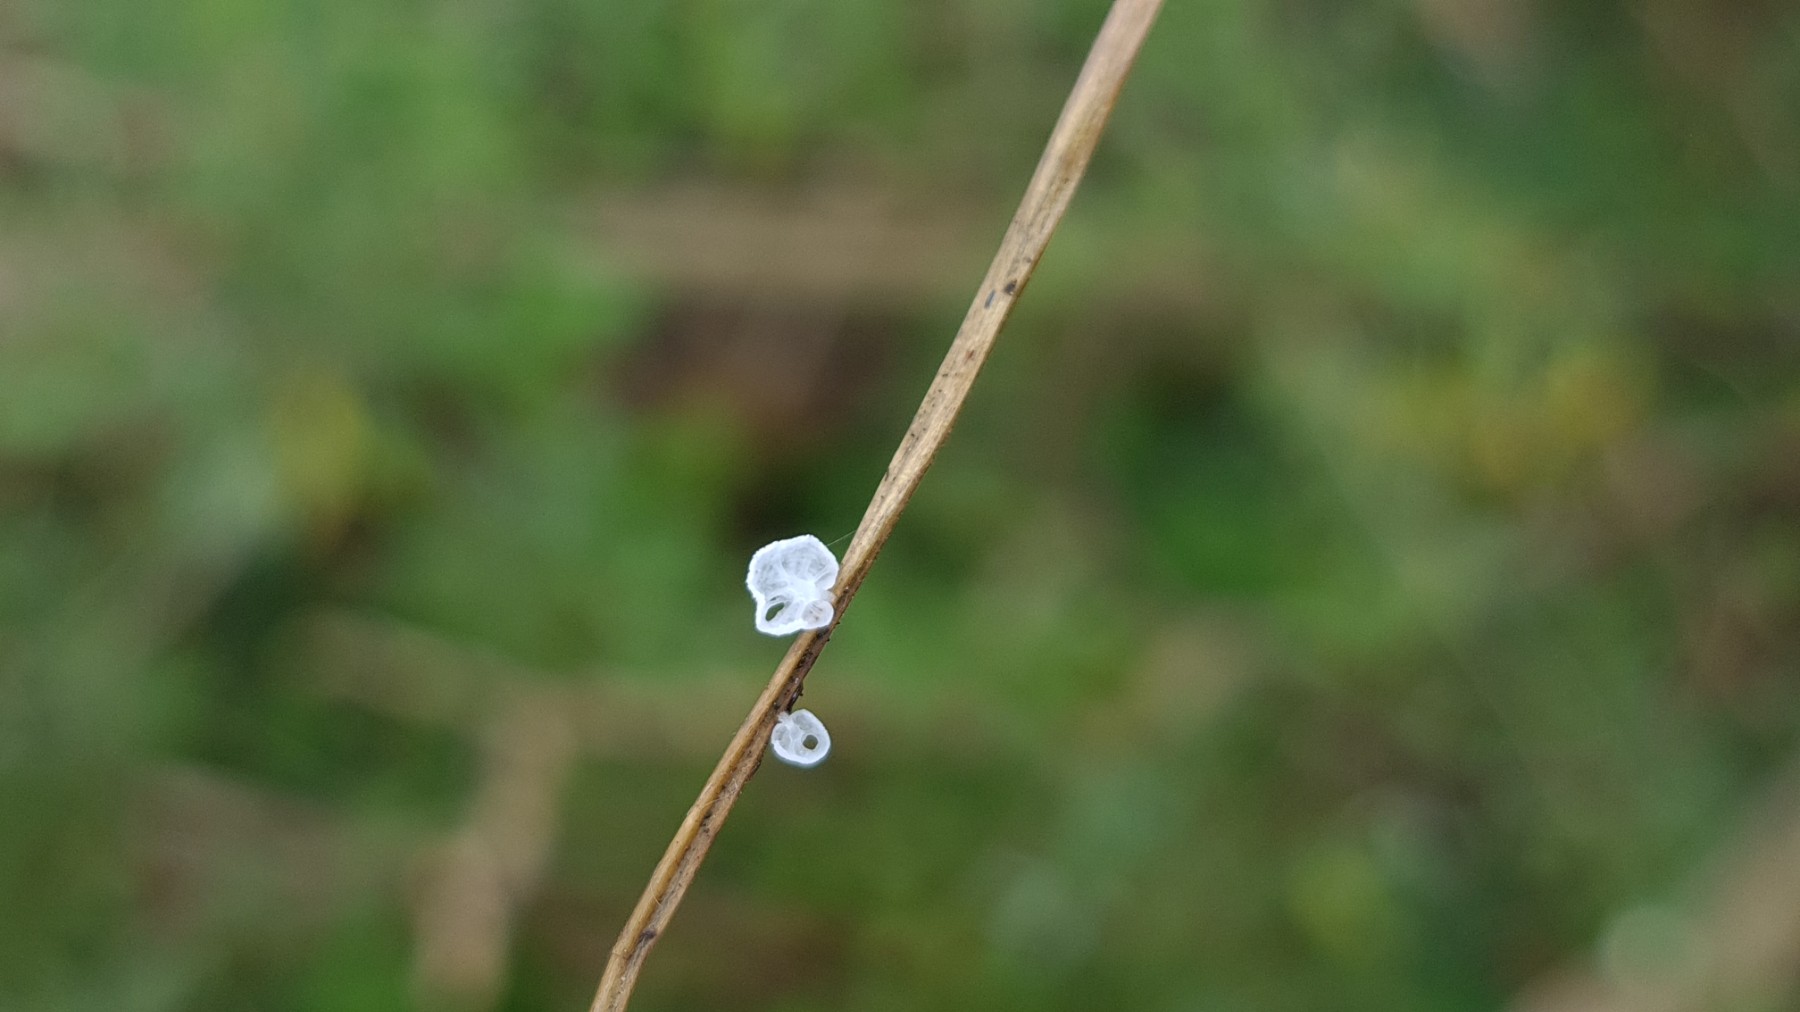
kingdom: Fungi
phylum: Basidiomycota
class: Agaricomycetes
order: Agaricales
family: Mycenaceae
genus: Hemimycena
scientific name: Hemimycena
